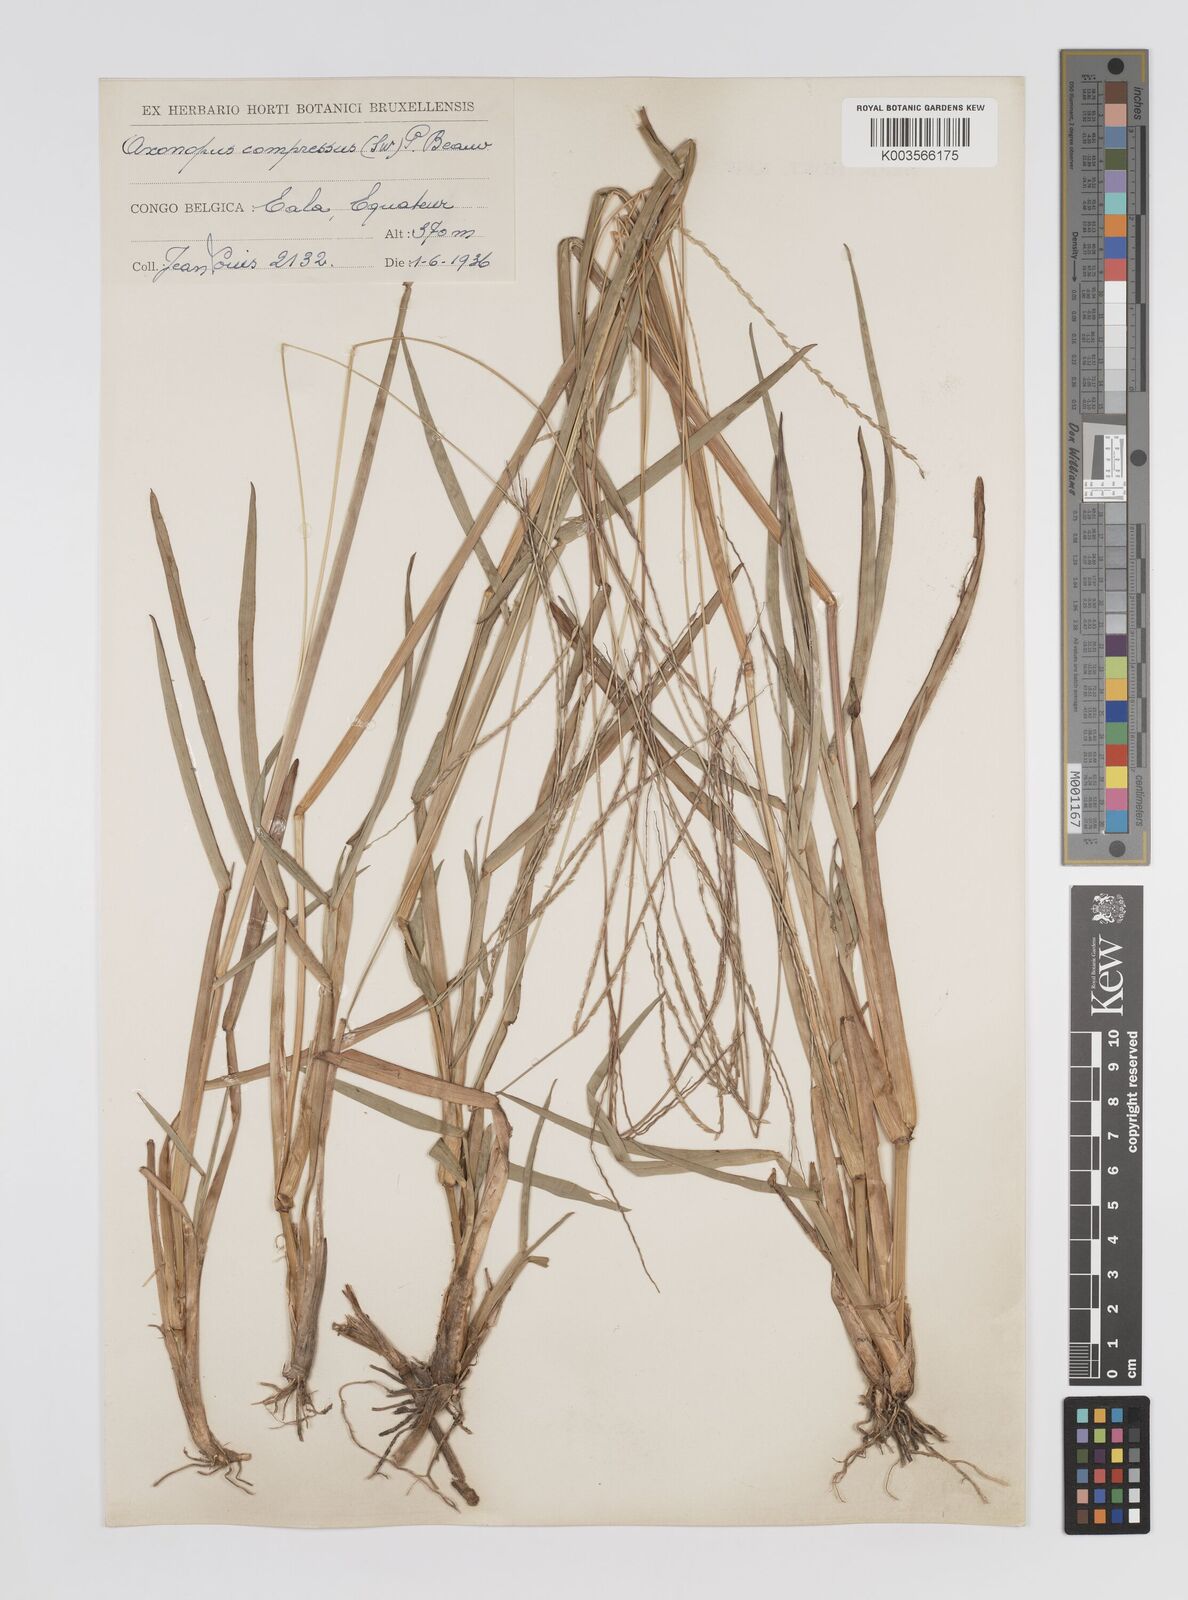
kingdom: Plantae
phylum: Tracheophyta
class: Liliopsida
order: Poales
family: Poaceae
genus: Axonopus
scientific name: Axonopus flexuosus
